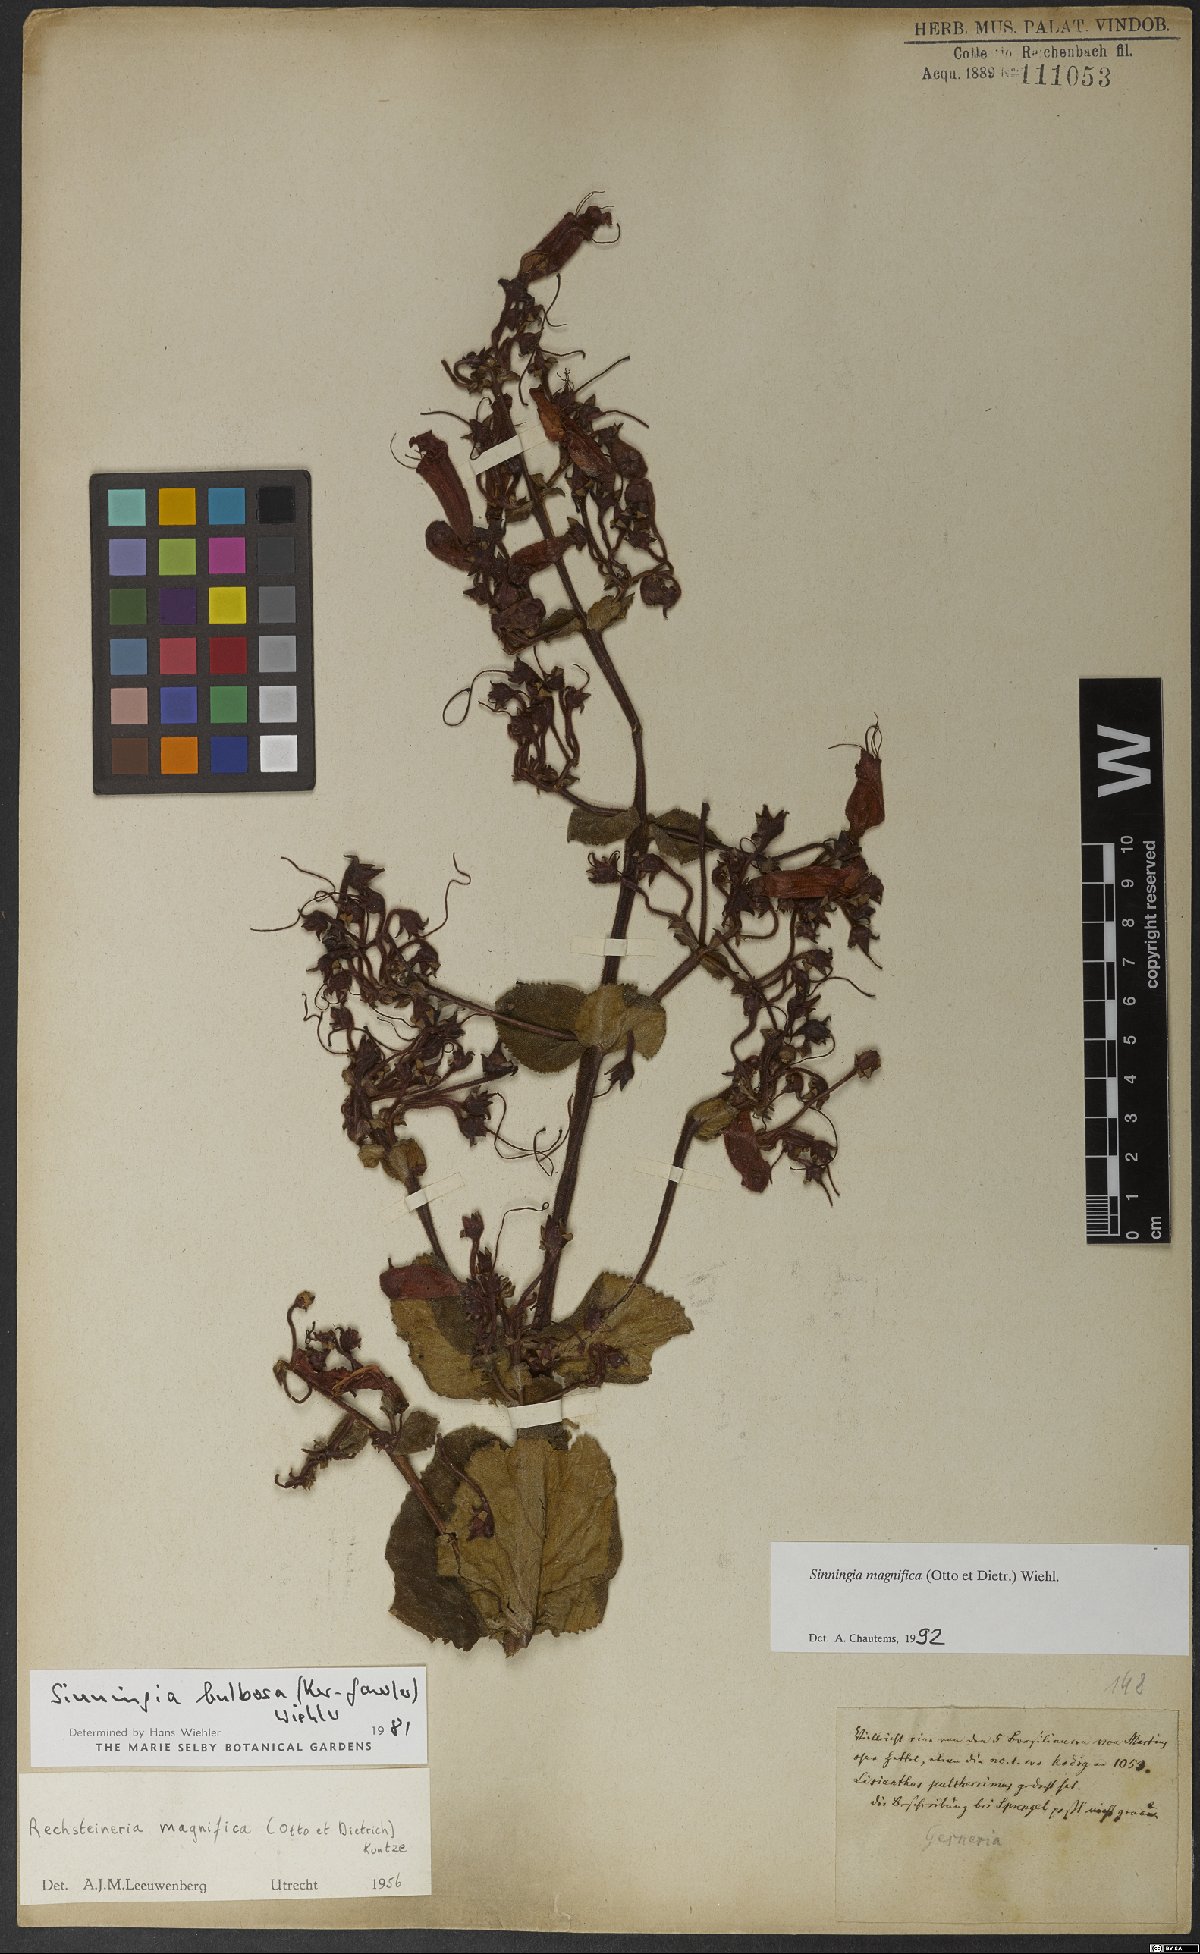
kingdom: Plantae
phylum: Tracheophyta
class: Magnoliopsida
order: Lamiales
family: Gesneriaceae
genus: Sinningia
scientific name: Sinningia magnifica
